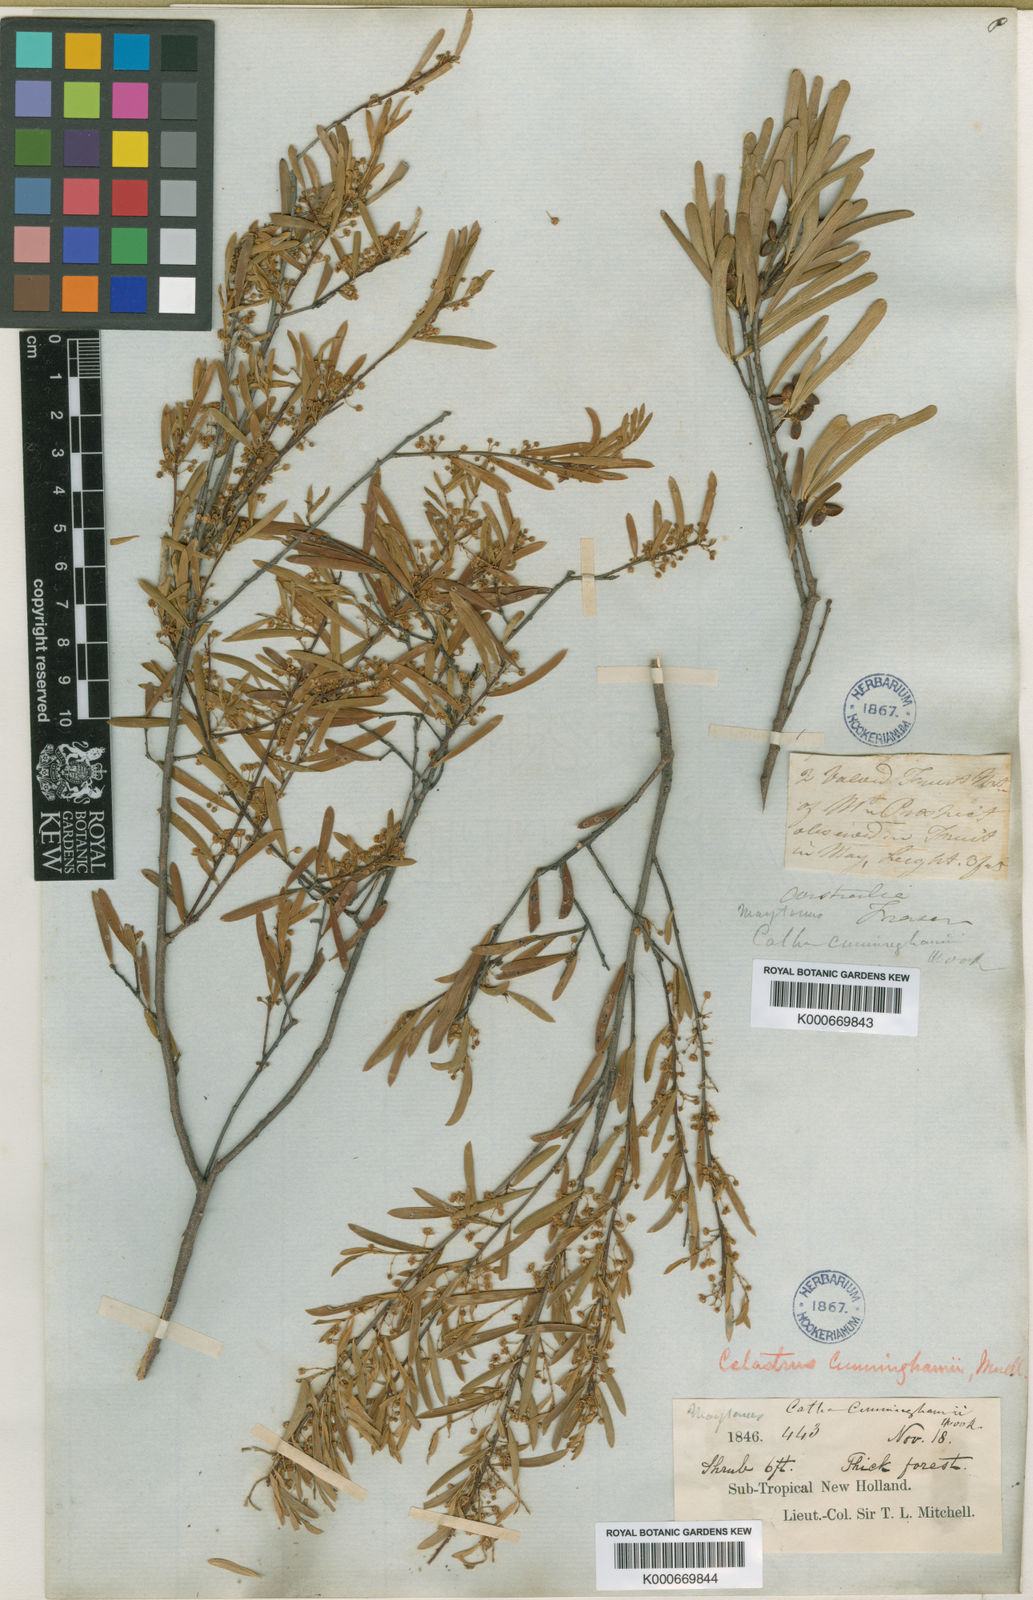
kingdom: Plantae
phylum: Tracheophyta
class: Magnoliopsida
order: Celastrales
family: Celastraceae
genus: Denhamia
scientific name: Denhamia cunninghamii
